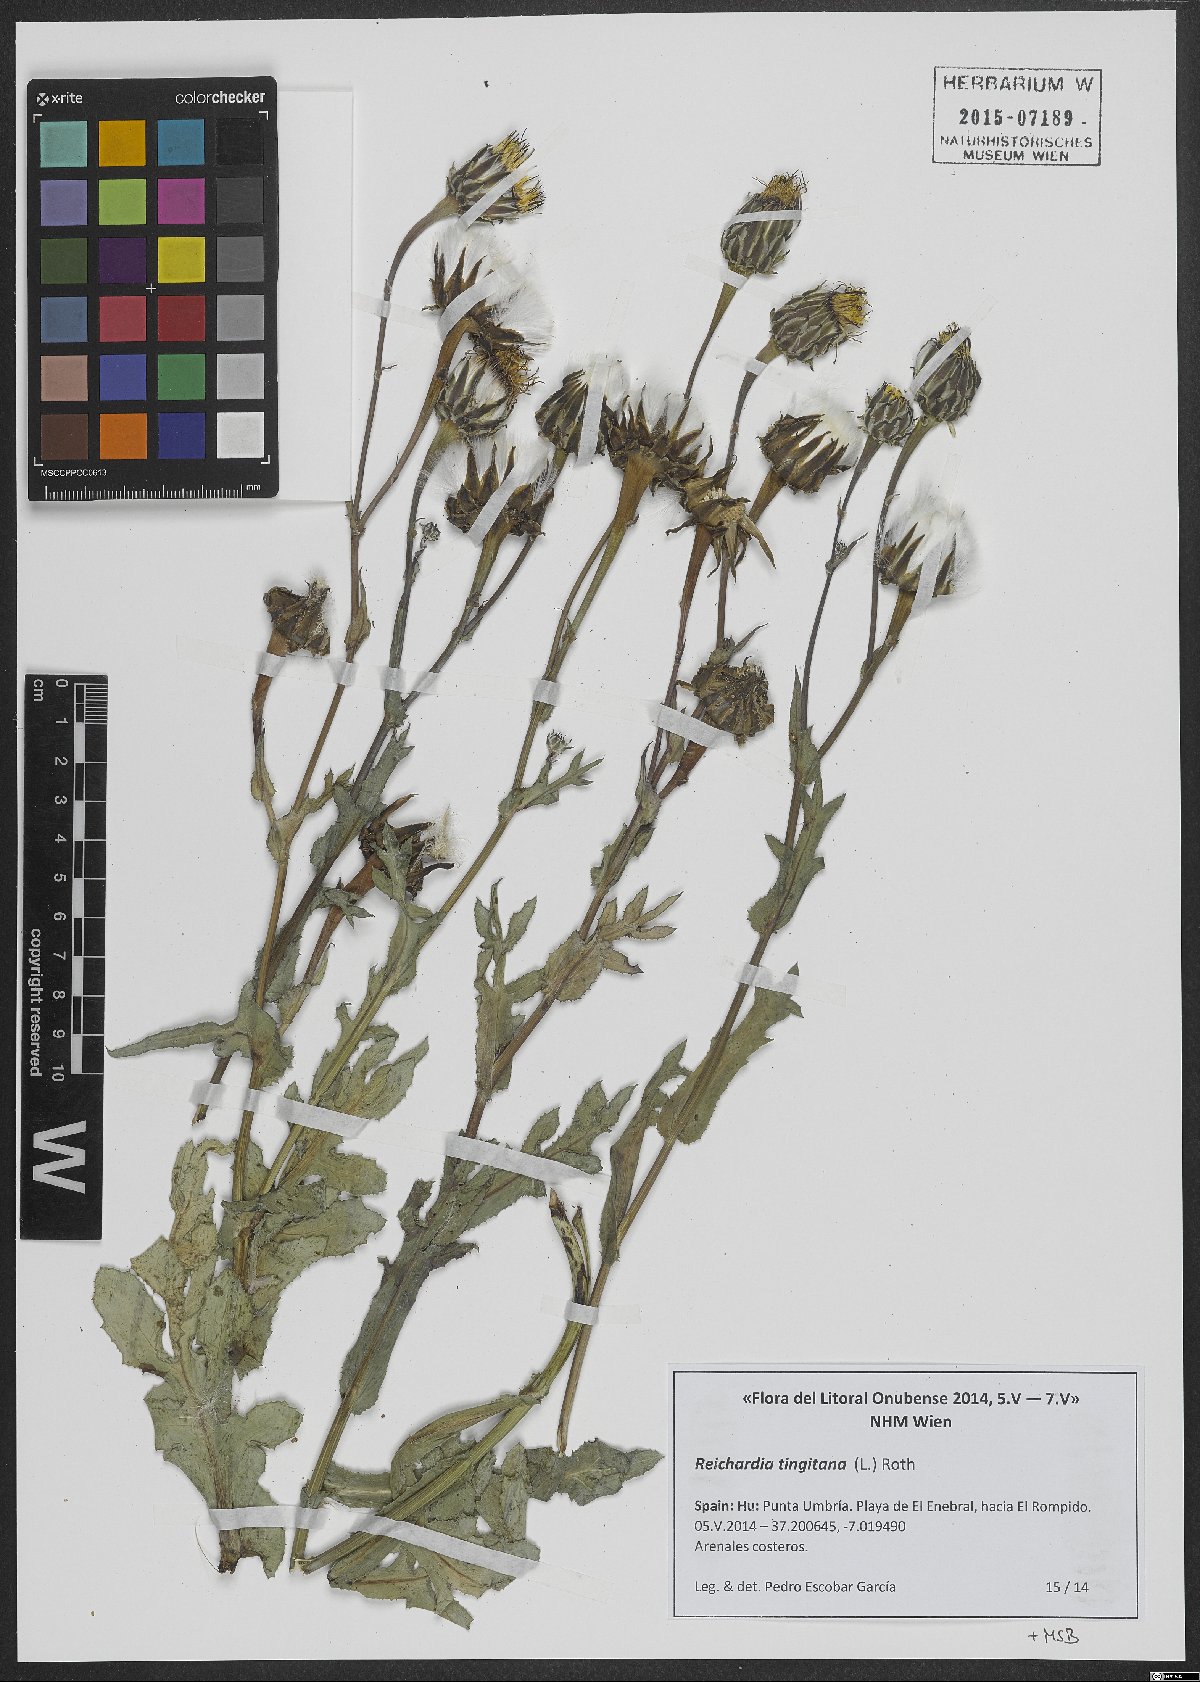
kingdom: Plantae
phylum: Tracheophyta
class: Magnoliopsida
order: Asterales
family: Asteraceae
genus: Reichardia
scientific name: Reichardia tingitana
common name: Reichardia
